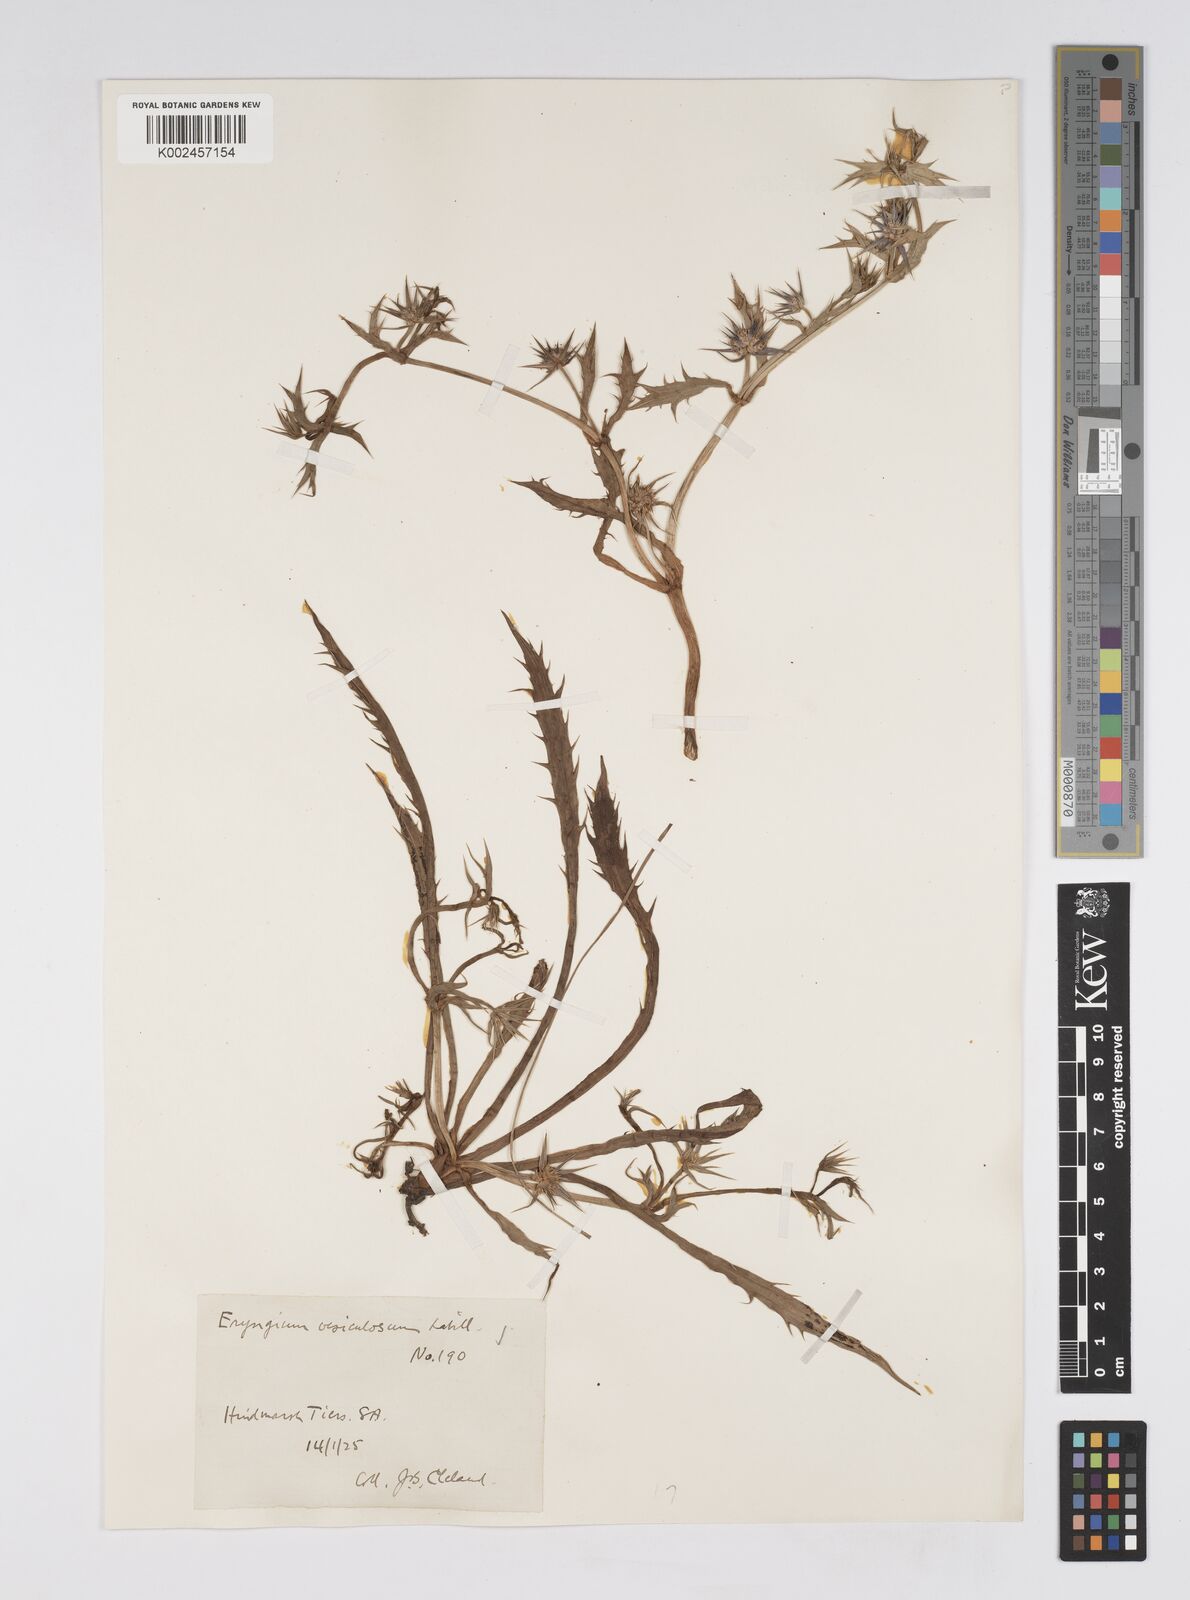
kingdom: Plantae
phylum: Tracheophyta
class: Magnoliopsida
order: Apiales
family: Apiaceae
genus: Eryngium
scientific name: Eryngium vesiculosum
